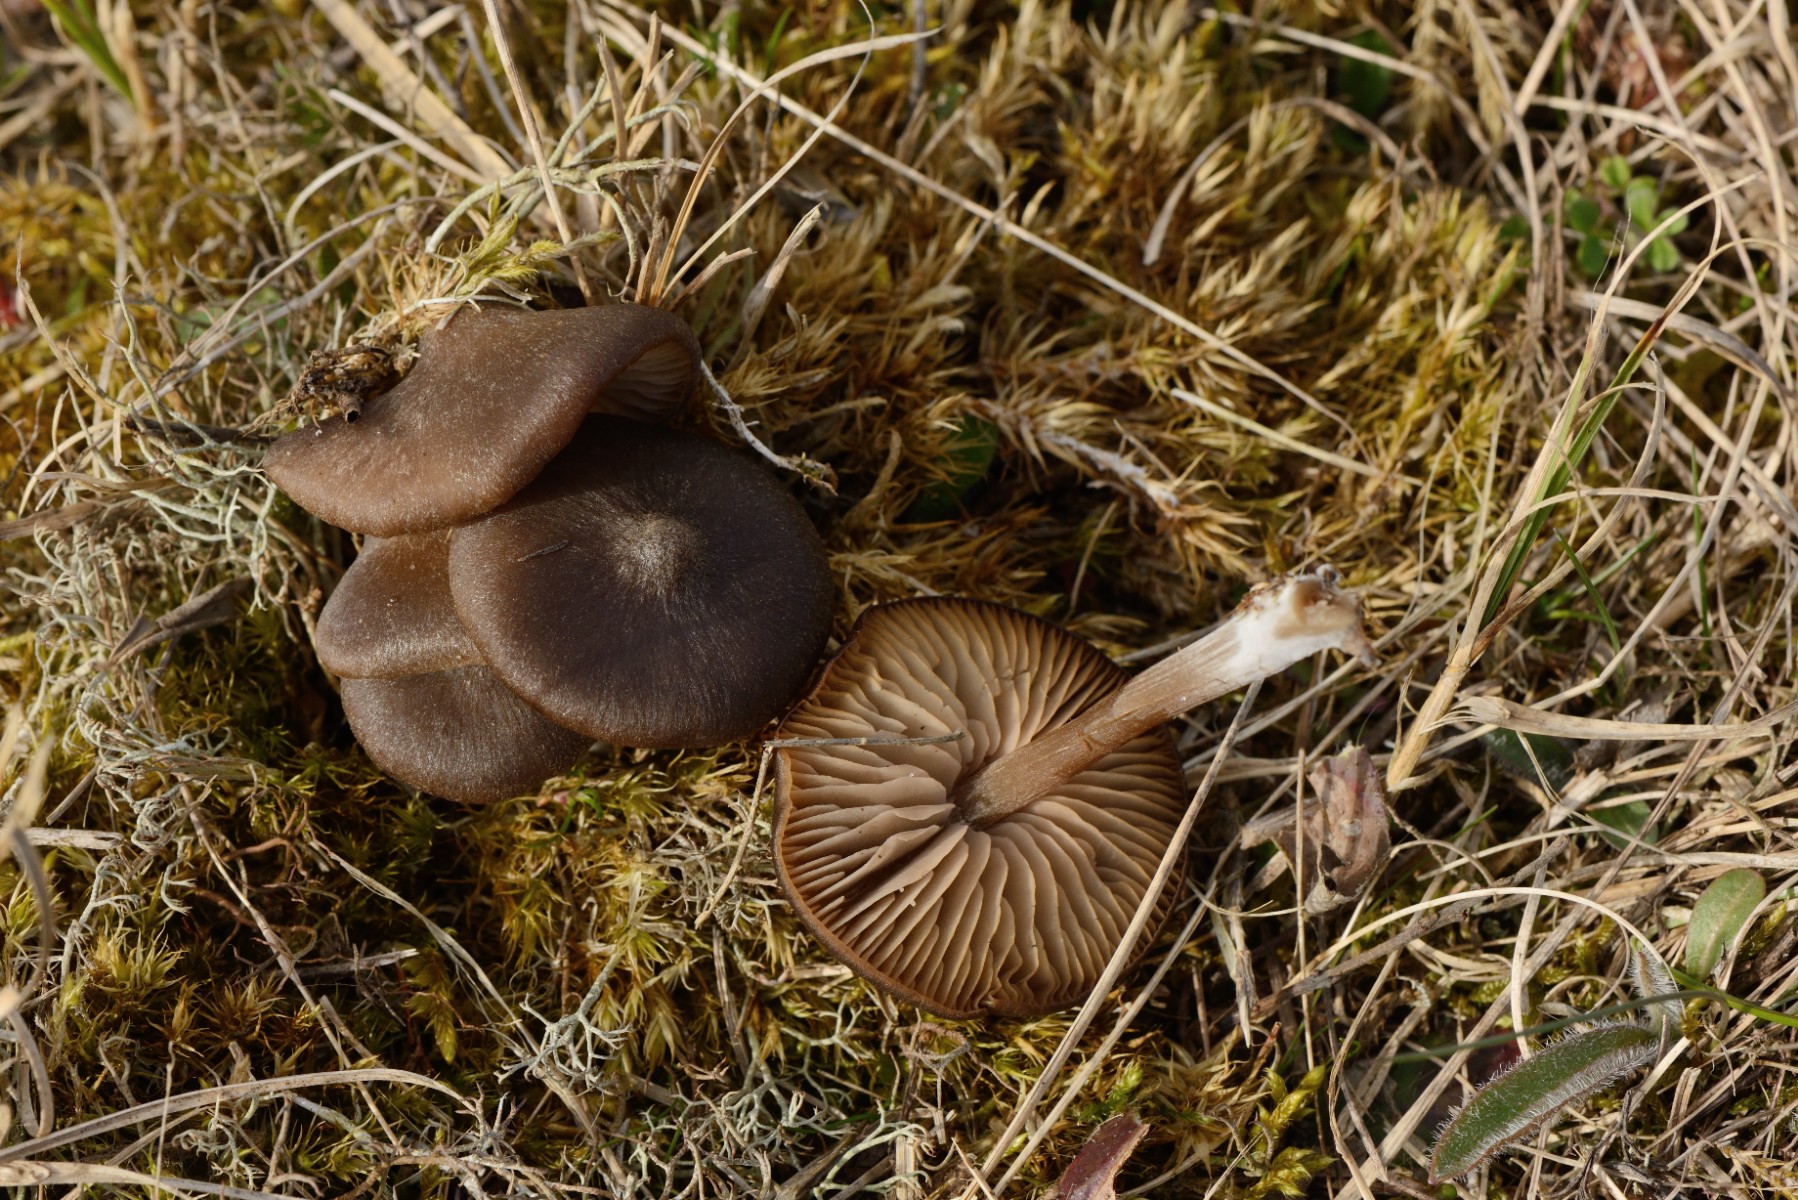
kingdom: Fungi
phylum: Basidiomycota
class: Agaricomycetes
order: Agaricales
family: Entolomataceae
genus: Entoloma
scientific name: Entoloma vernum
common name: vår-rødblad
